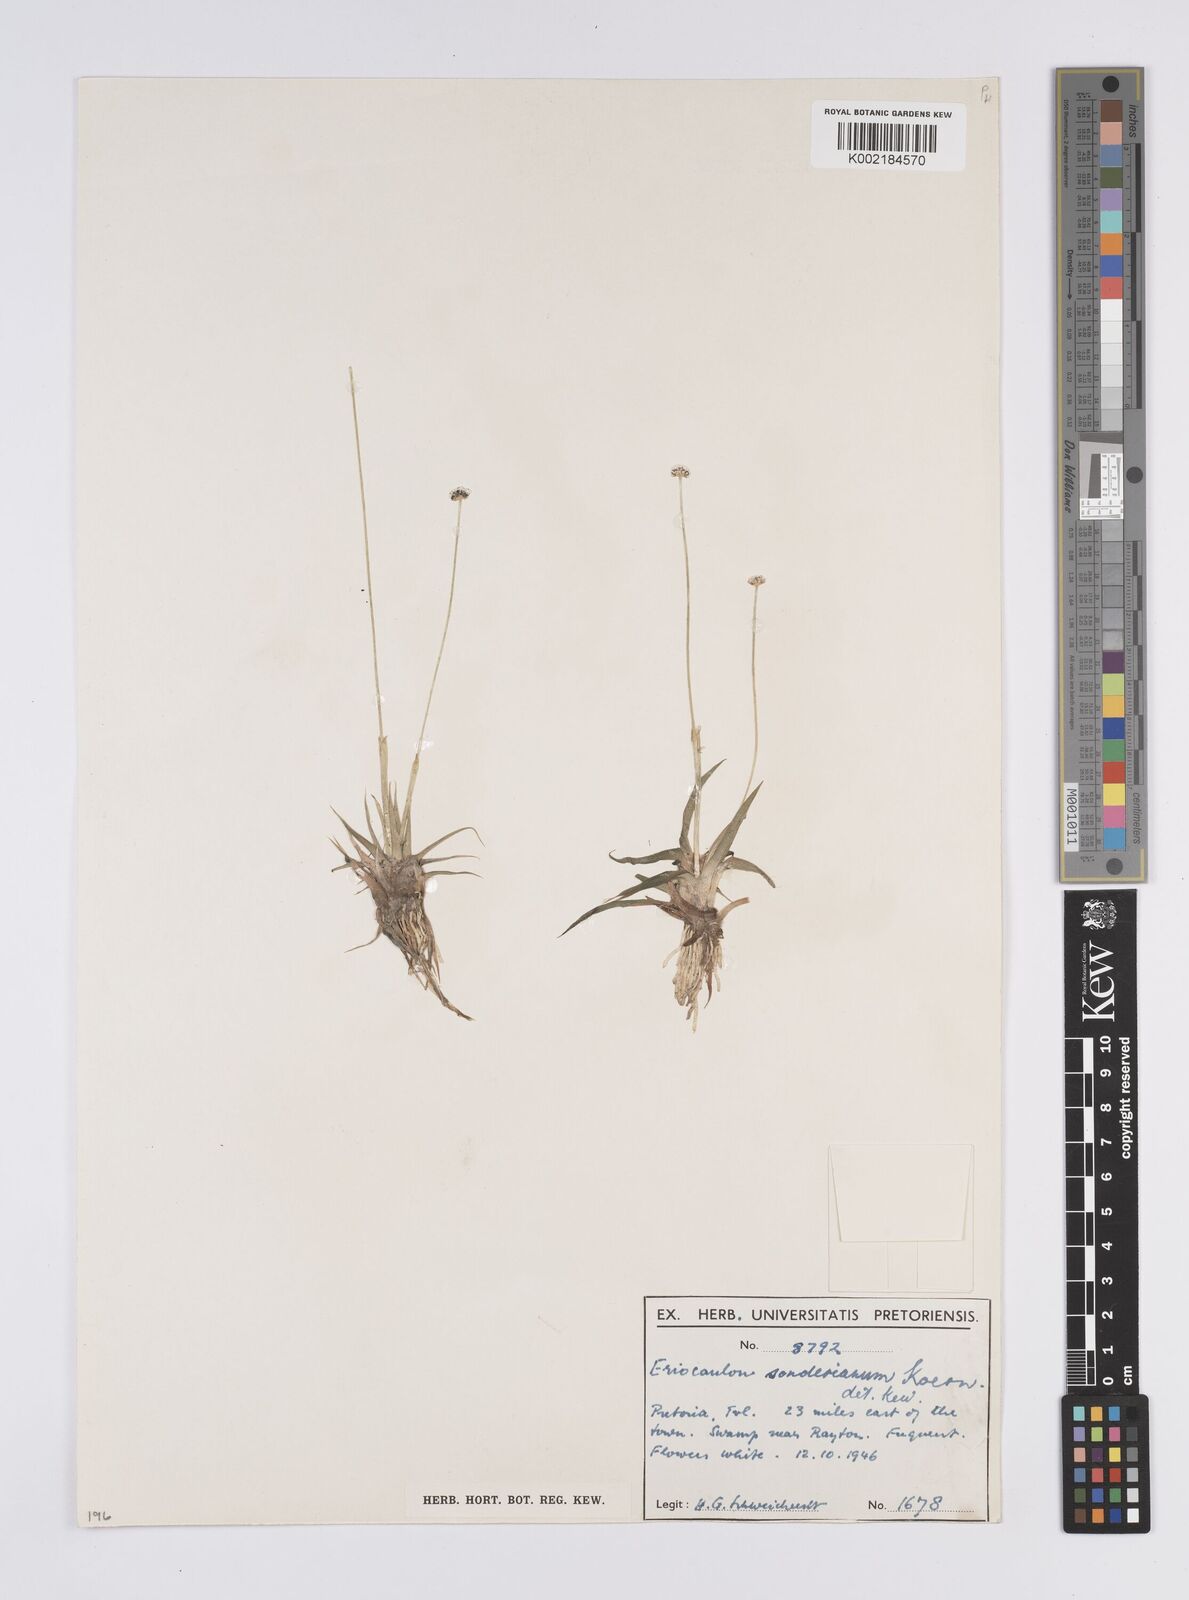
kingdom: Plantae
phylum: Tracheophyta
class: Liliopsida
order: Poales
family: Eriocaulaceae
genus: Eriocaulon
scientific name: Eriocaulon sonderianum
